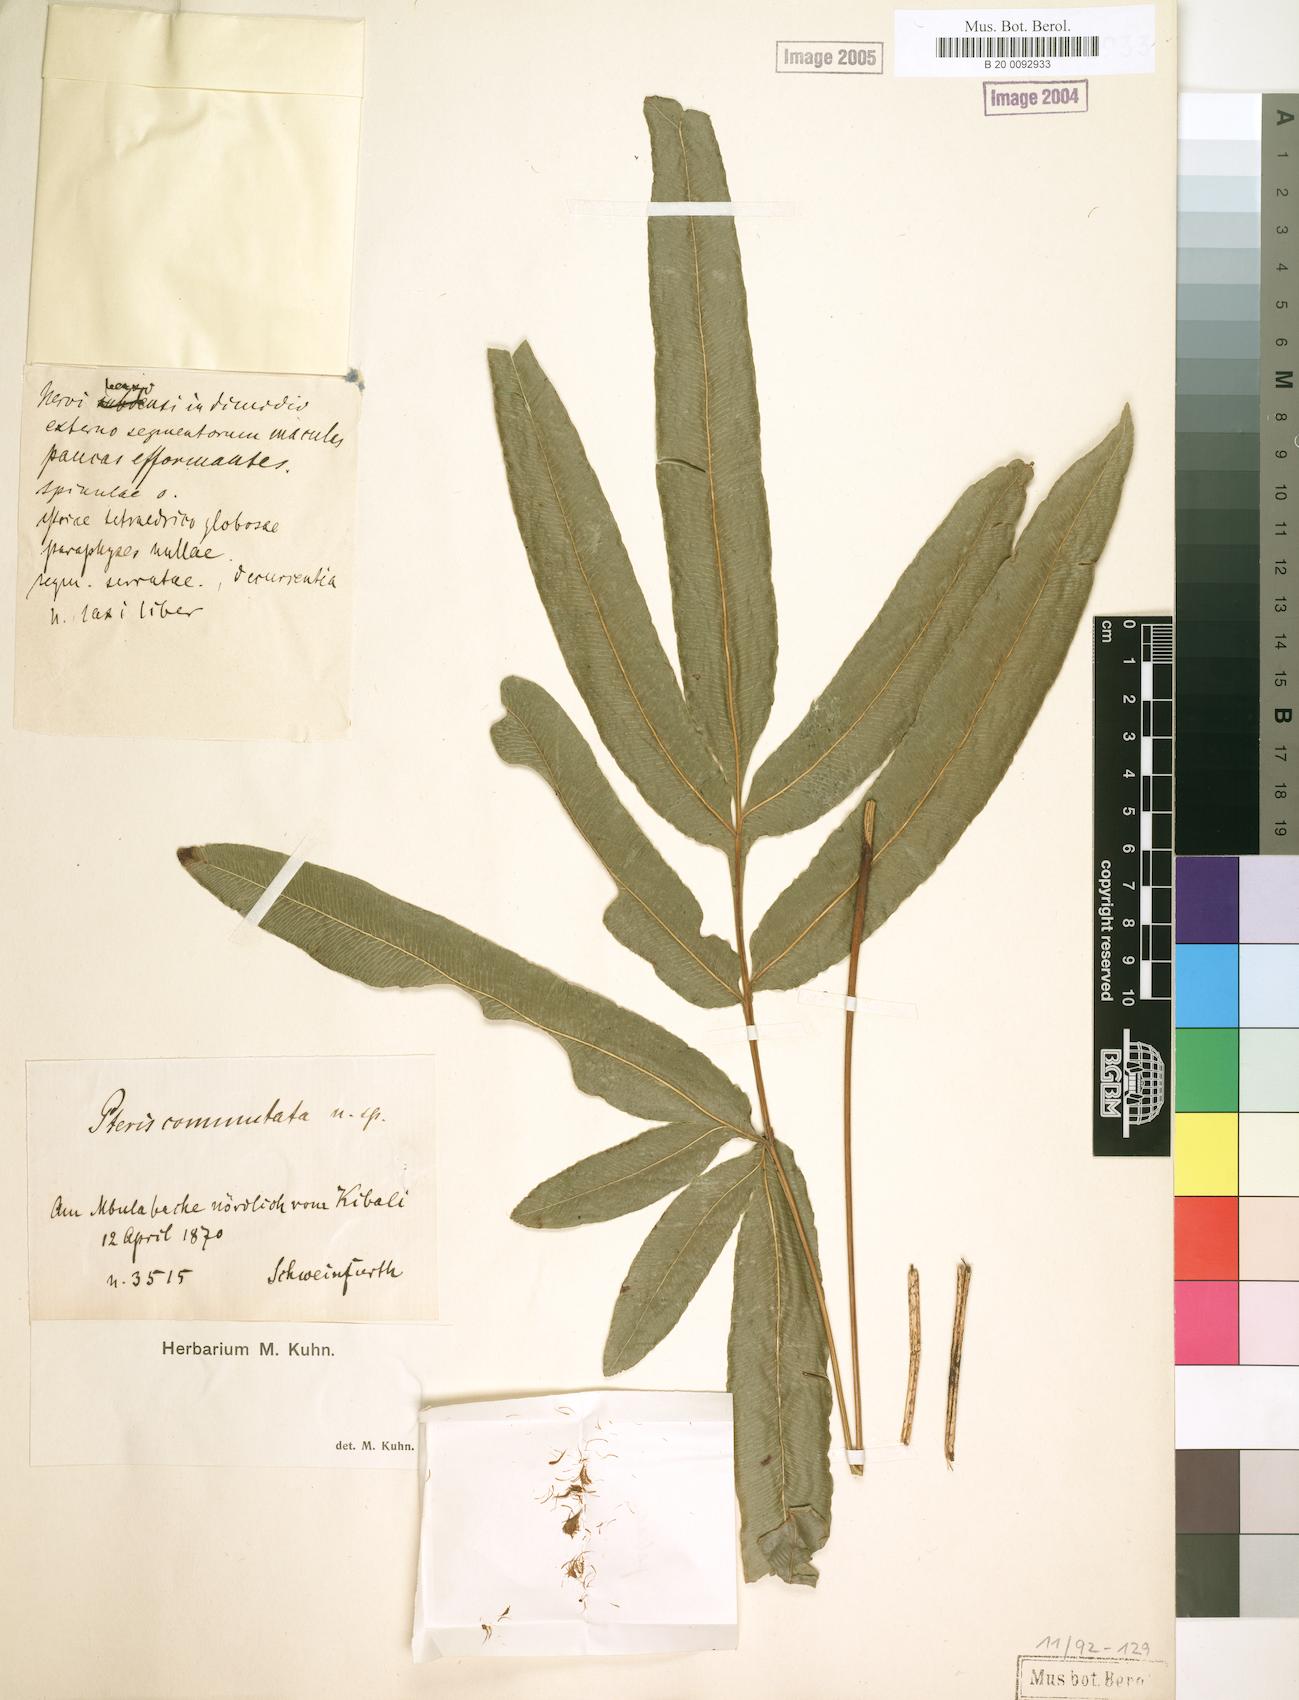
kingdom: Plantae
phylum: Tracheophyta
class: Polypodiopsida
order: Polypodiales
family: Pteridaceae
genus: Pteris
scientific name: Pteris commutata
